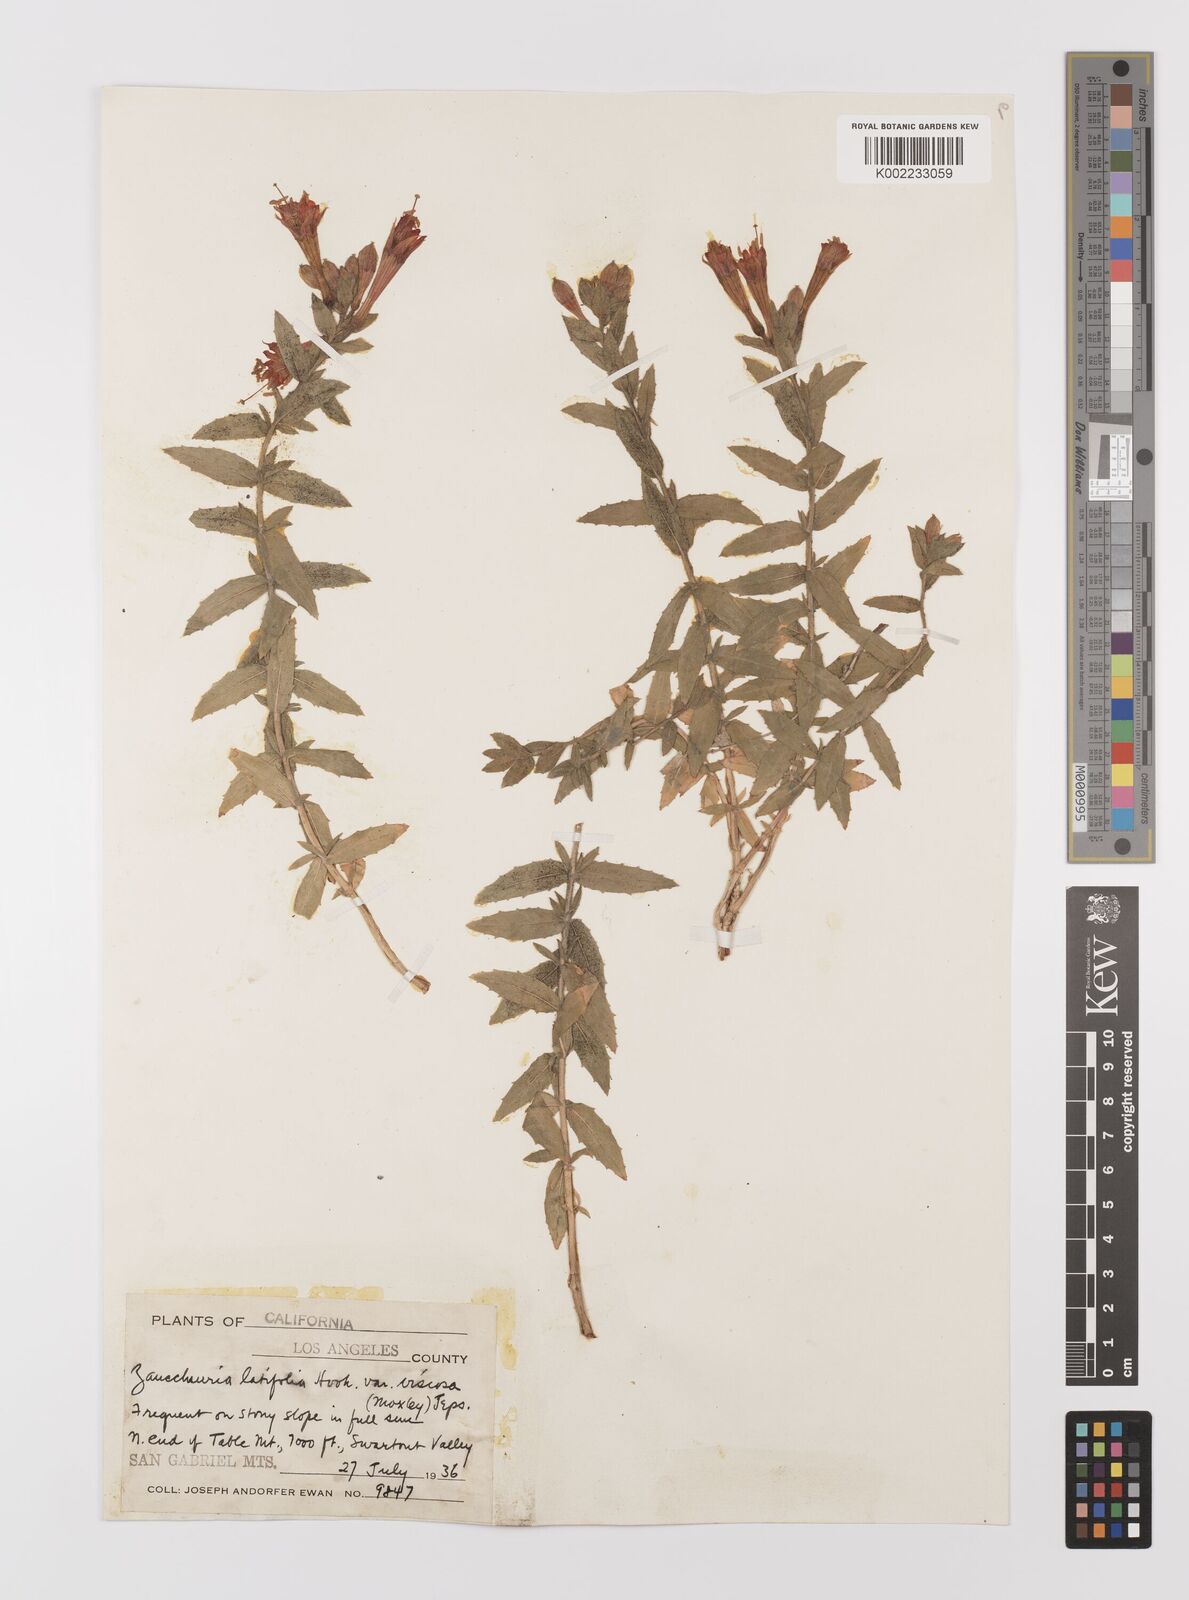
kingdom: Plantae
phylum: Tracheophyta
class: Magnoliopsida
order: Myrtales
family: Onagraceae
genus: Epilobium
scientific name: Epilobium
